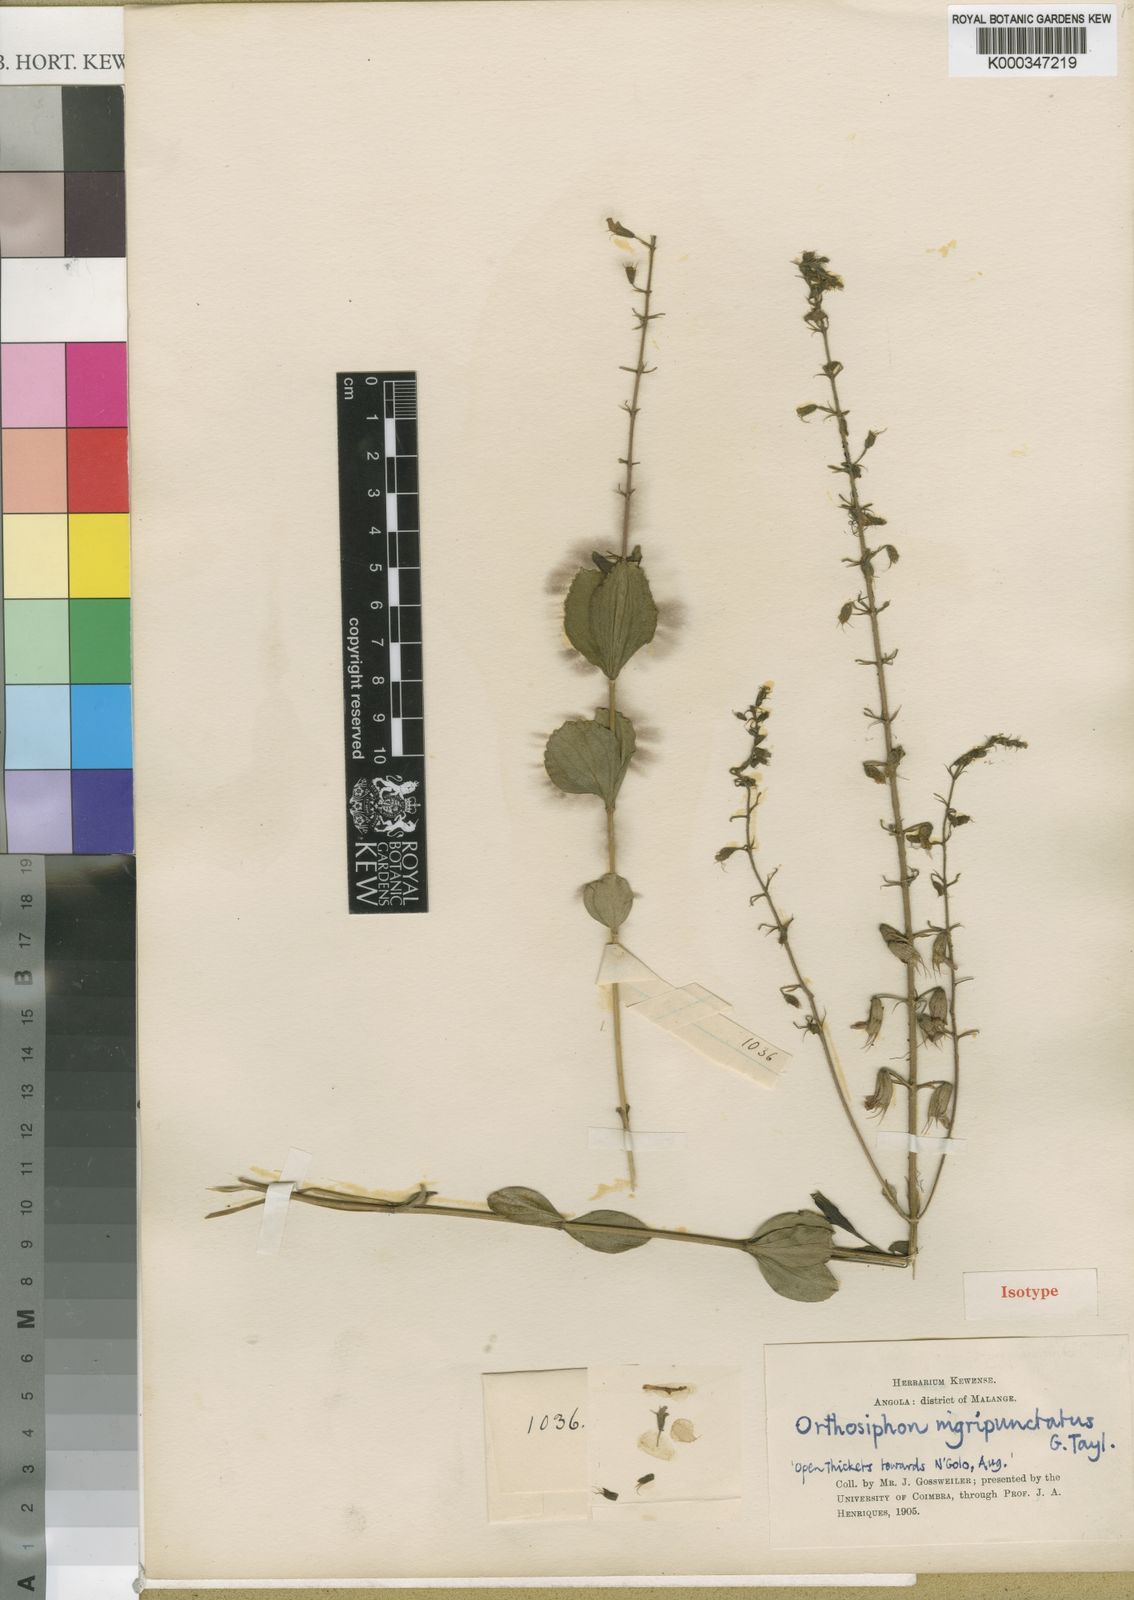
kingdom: Plantae
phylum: Tracheophyta
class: Magnoliopsida
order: Lamiales
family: Lamiaceae
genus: Orthosiphon
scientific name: Orthosiphon nigripunctatus
